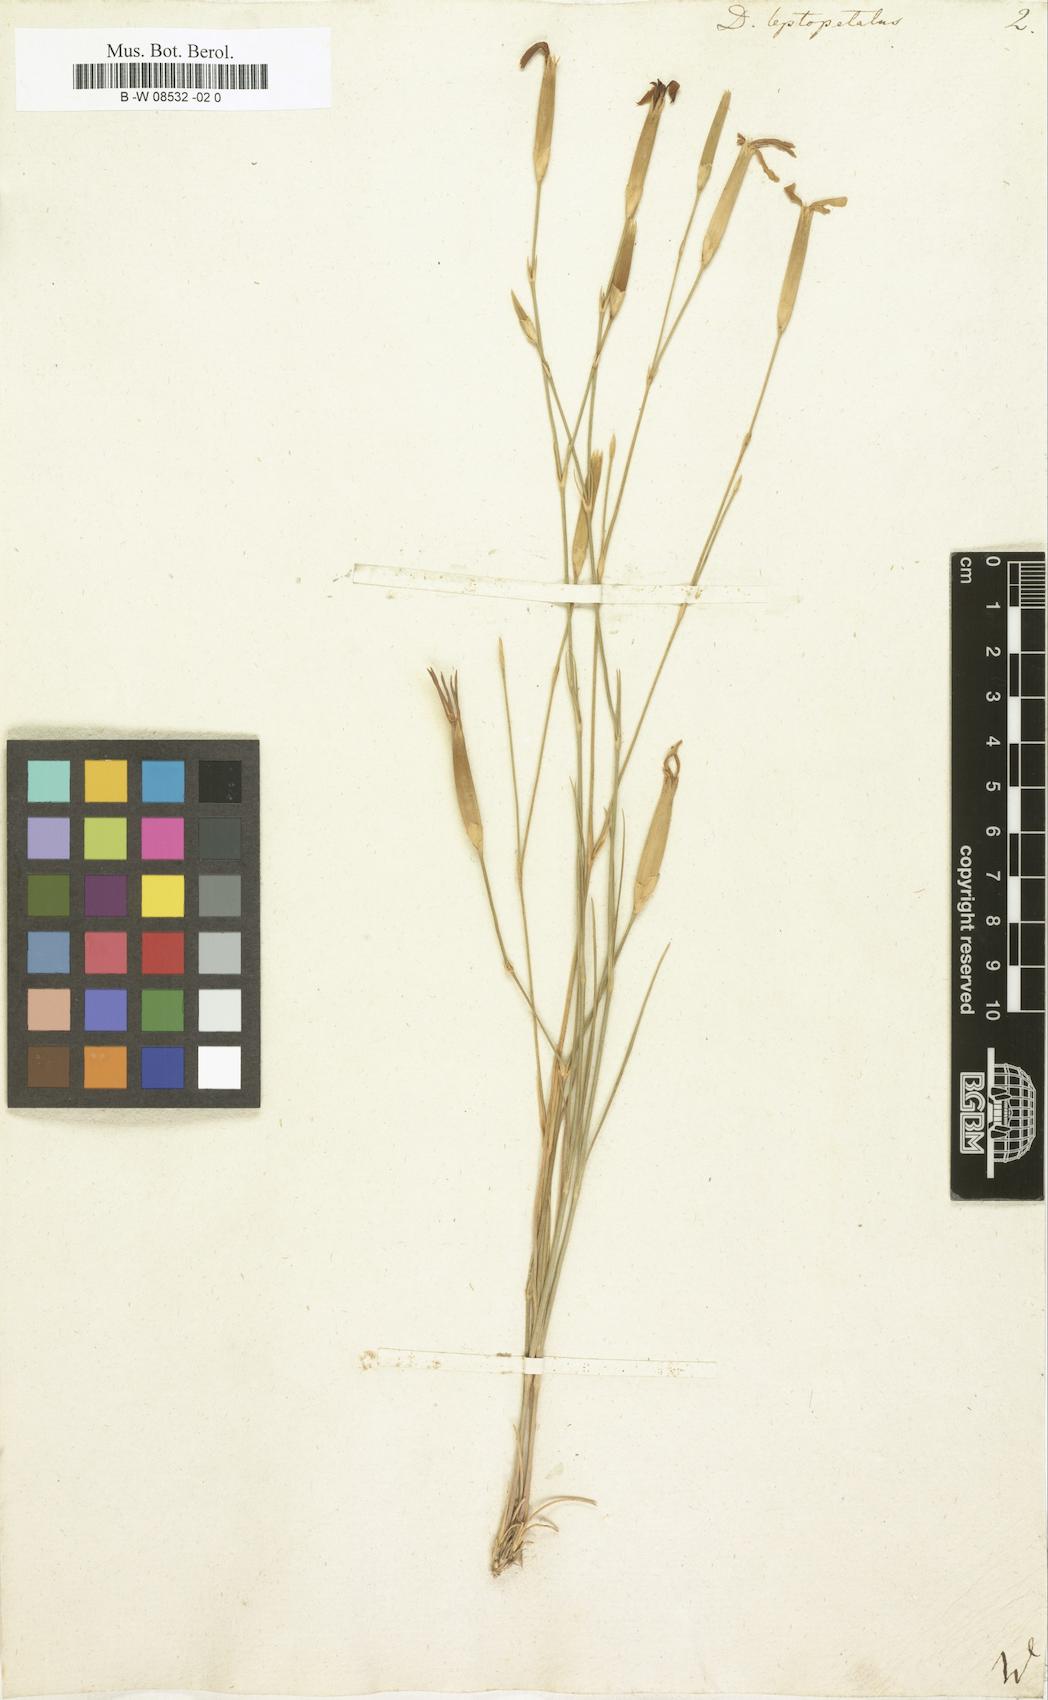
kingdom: Plantae
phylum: Tracheophyta
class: Magnoliopsida
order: Caryophyllales
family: Caryophyllaceae
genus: Dianthus
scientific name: Dianthus leptopetalus
